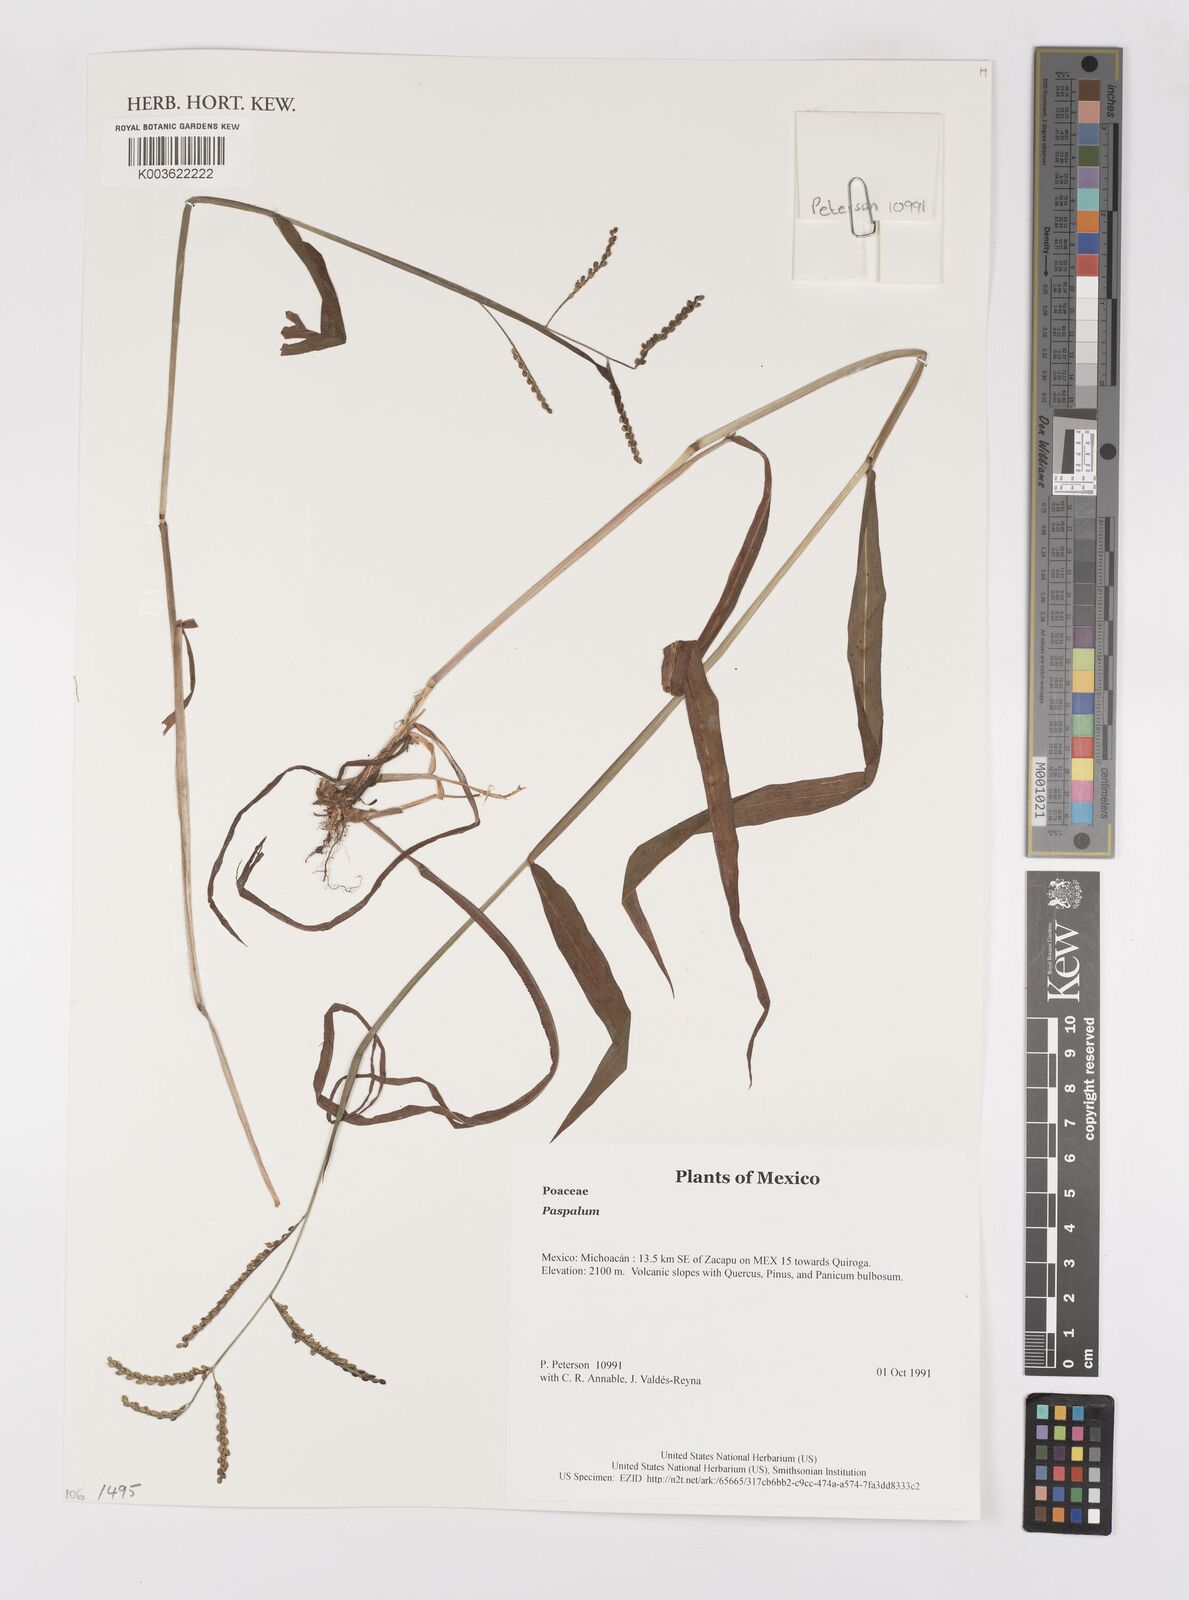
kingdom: Plantae
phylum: Tracheophyta
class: Liliopsida
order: Poales
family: Poaceae
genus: Paspalum
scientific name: Paspalum
